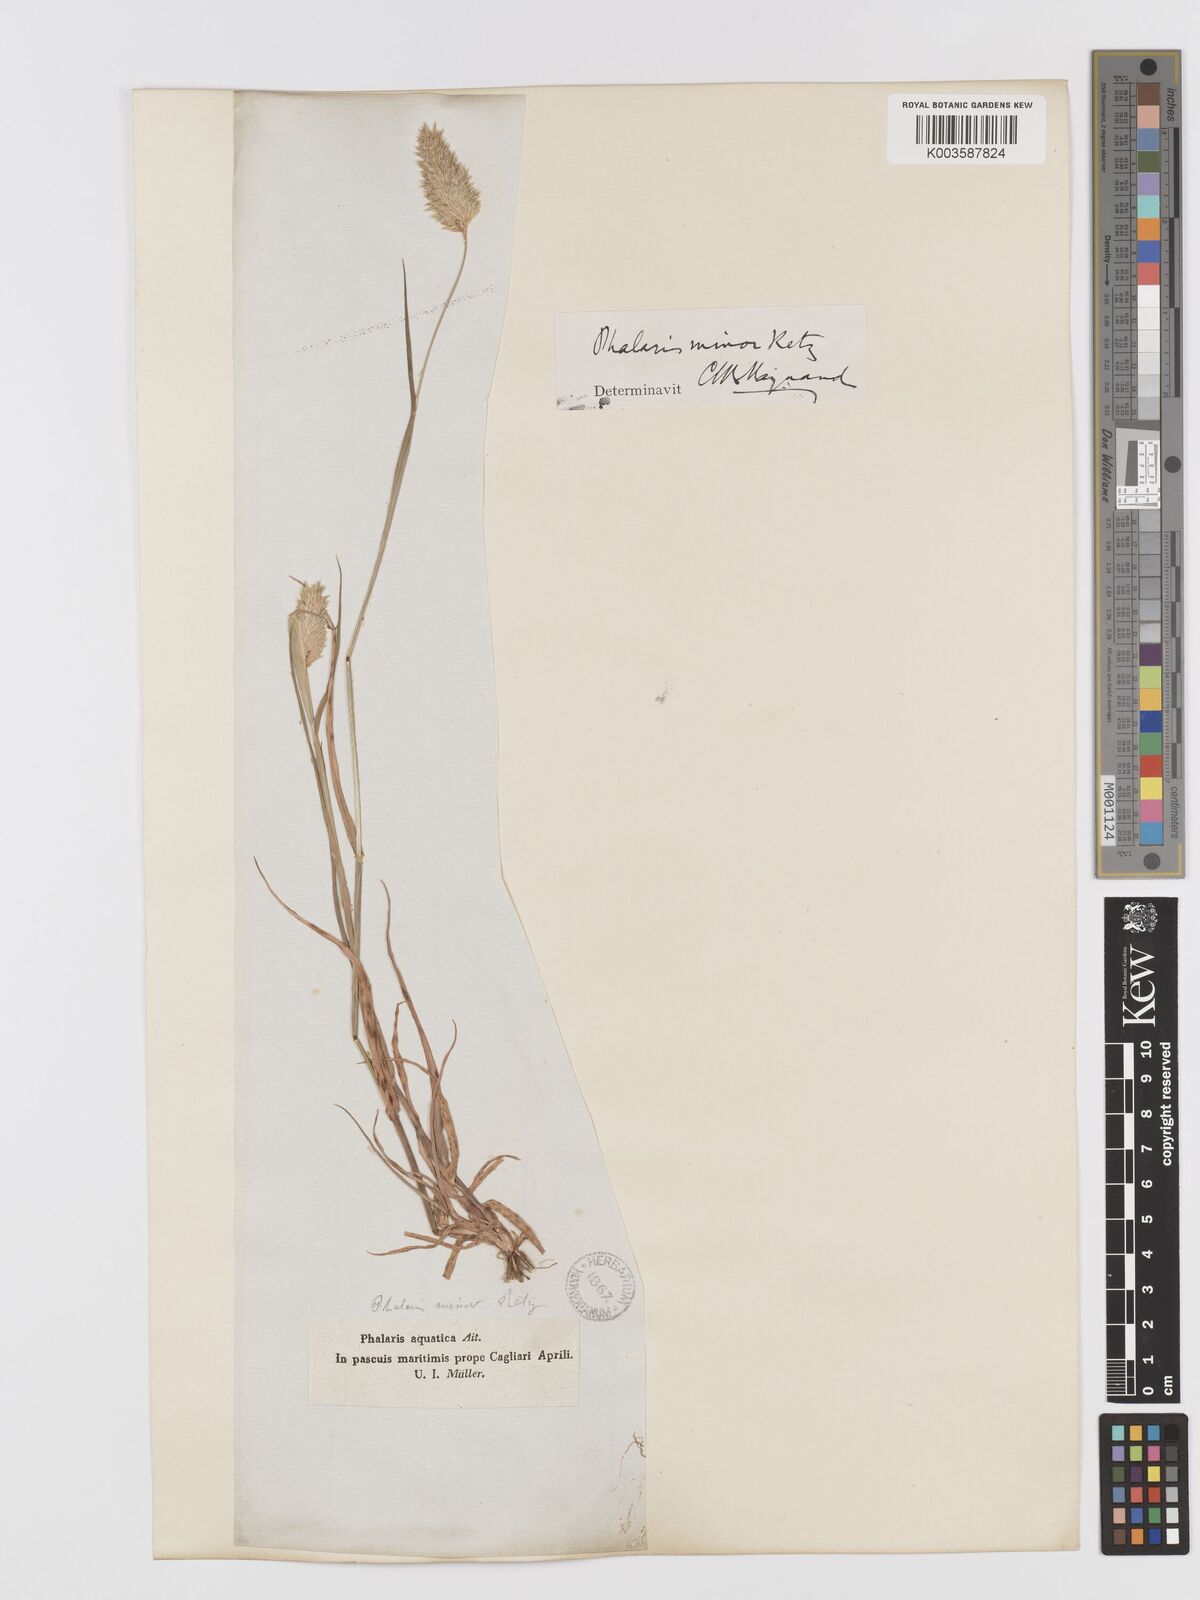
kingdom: Plantae
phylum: Tracheophyta
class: Liliopsida
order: Poales
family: Poaceae
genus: Phalaris
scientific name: Phalaris minor
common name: Littleseed canarygrass
